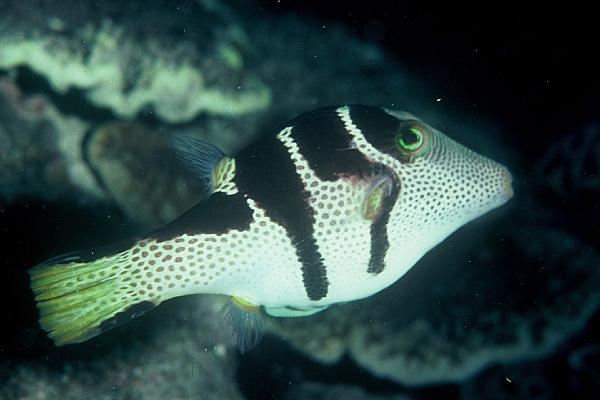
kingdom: Animalia
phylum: Chordata
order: Tetraodontiformes
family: Tetraodontidae
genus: Canthigaster
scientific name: Canthigaster valentini
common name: Banded toby
